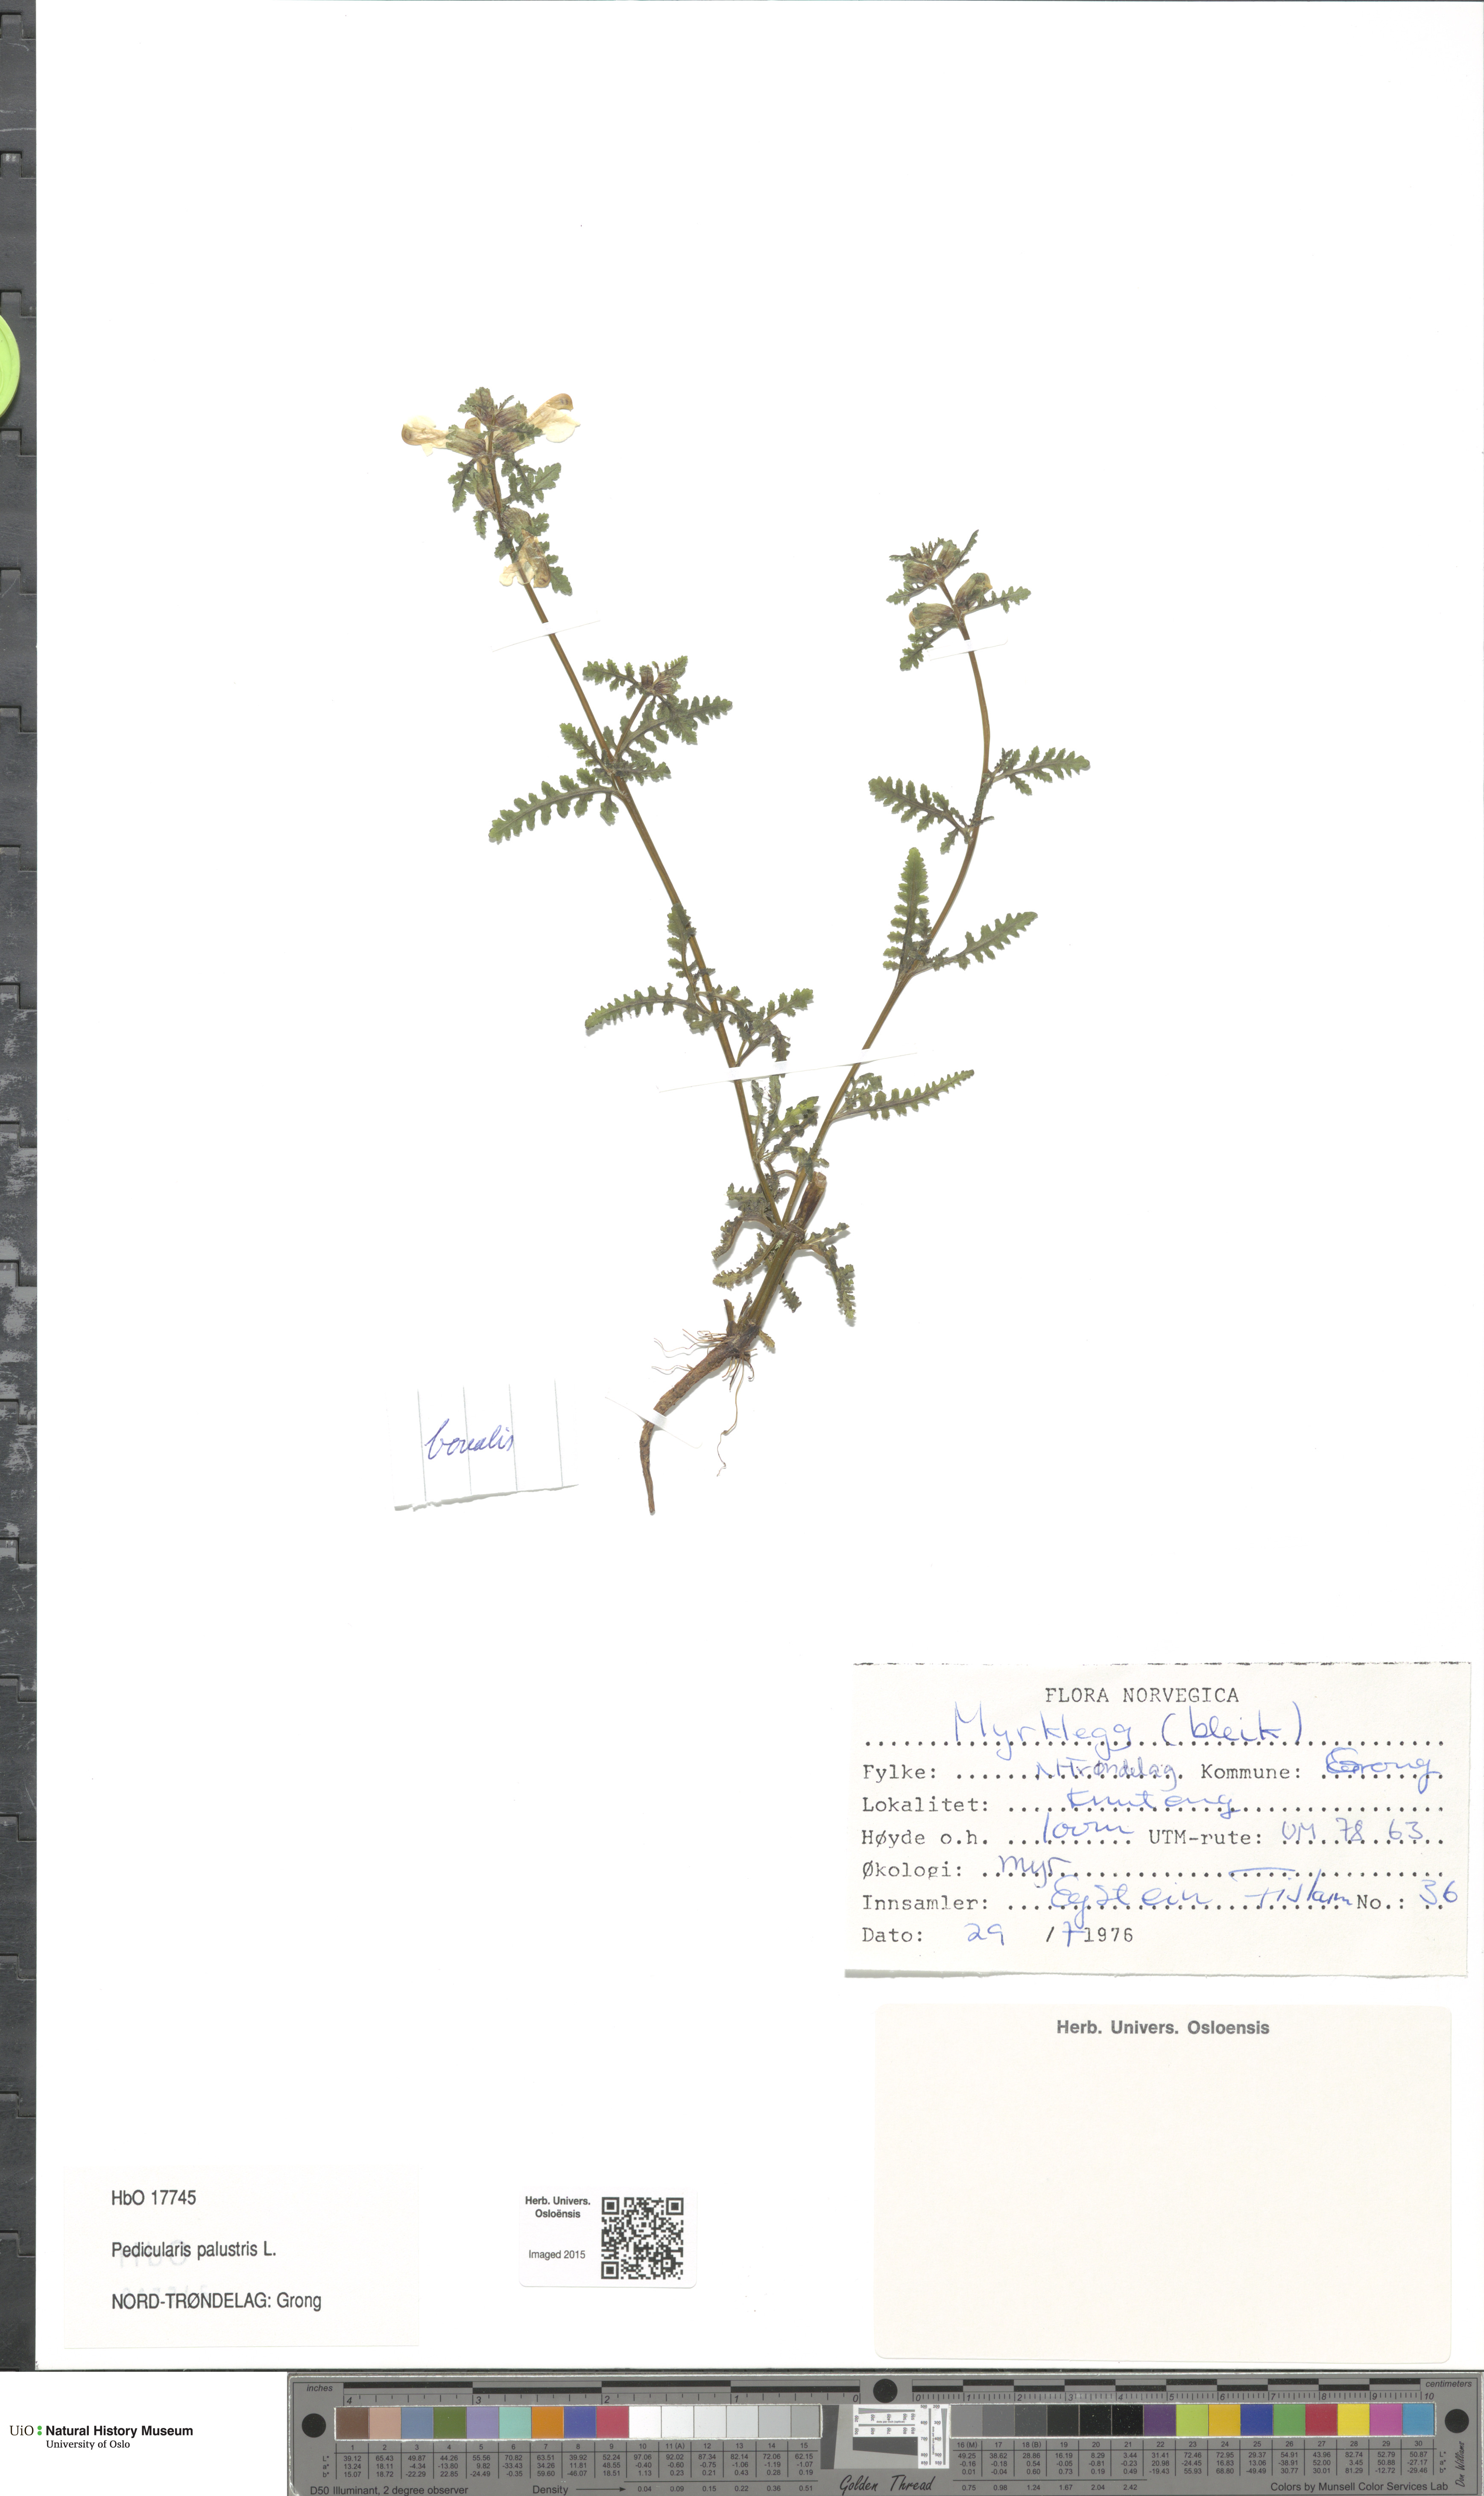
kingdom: Plantae
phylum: Tracheophyta
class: Magnoliopsida
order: Lamiales
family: Orobanchaceae
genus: Pedicularis
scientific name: Pedicularis palustris
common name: Marsh lousewort
